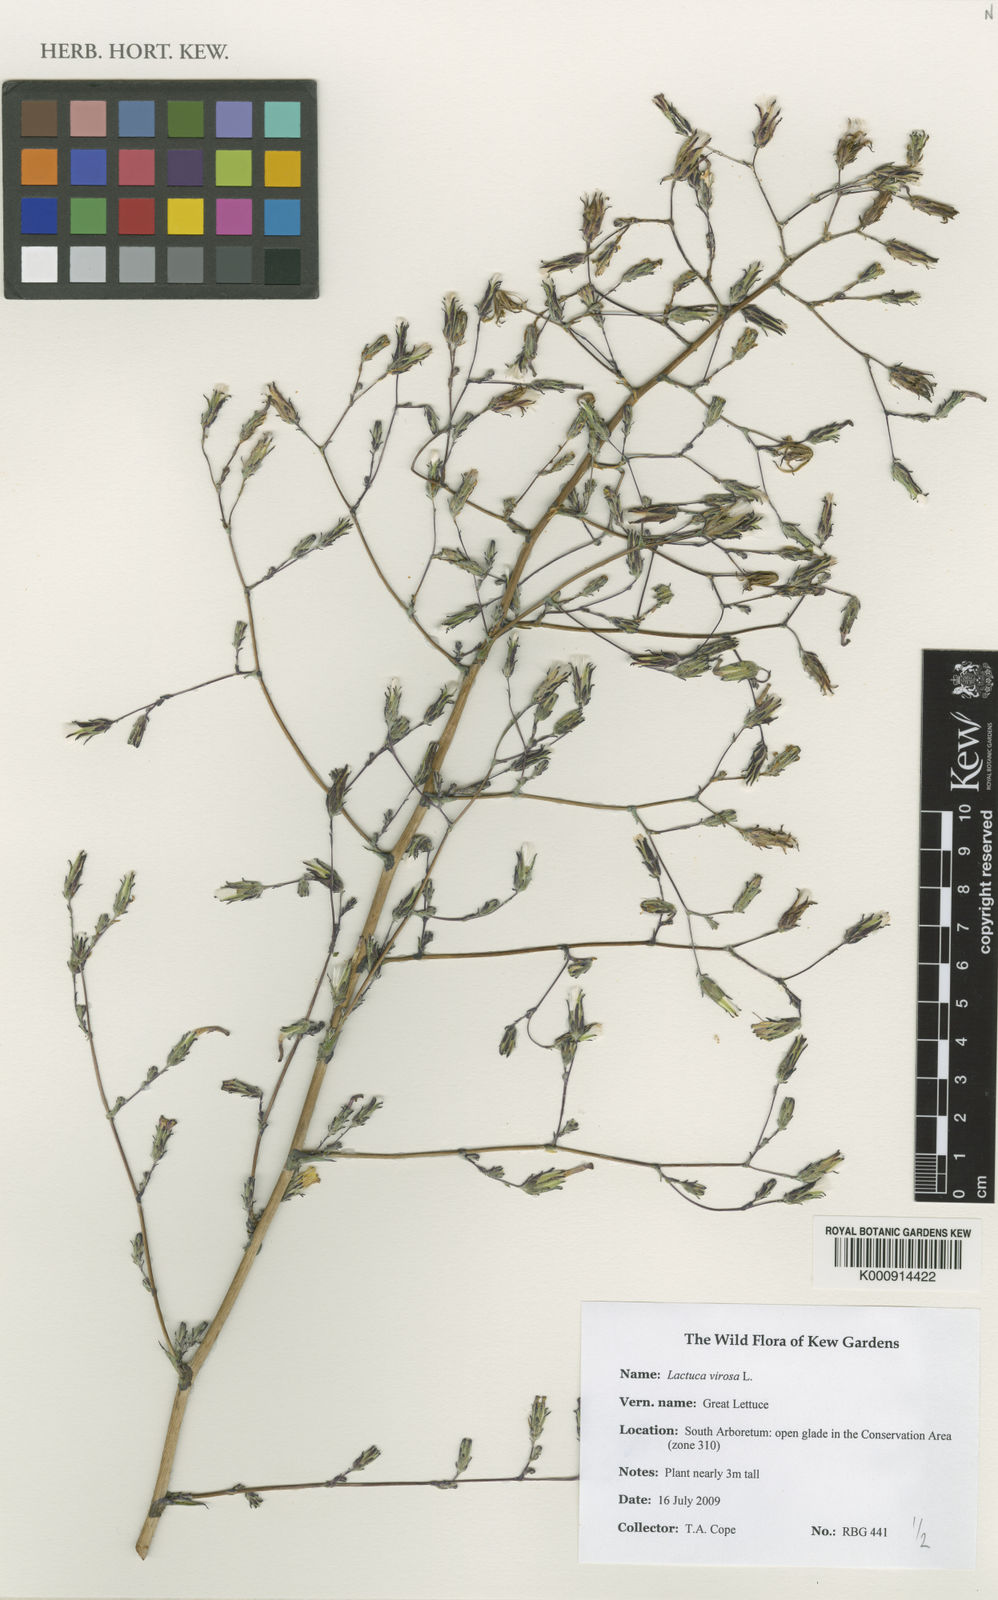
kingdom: Plantae
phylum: Tracheophyta
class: Magnoliopsida
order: Asterales
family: Asteraceae
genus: Lactuca
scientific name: Lactuca virosa
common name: Great lettuce
